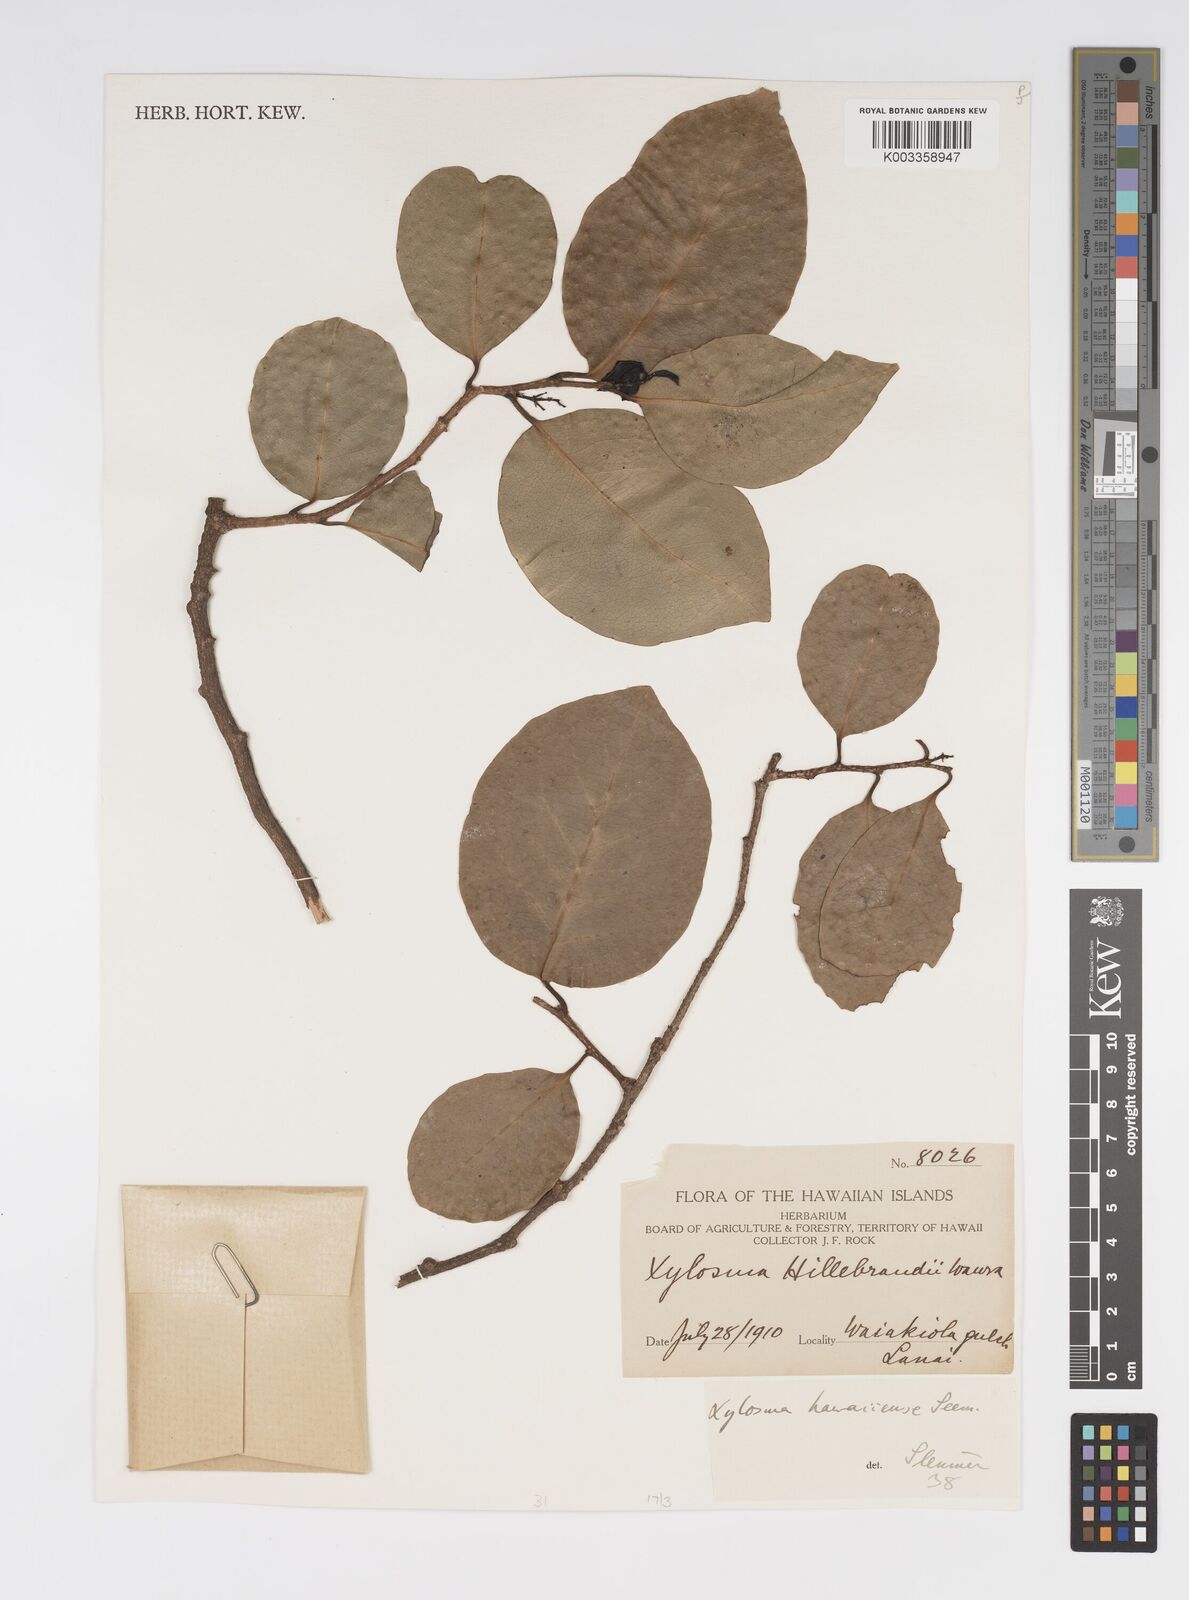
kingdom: Plantae
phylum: Tracheophyta
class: Magnoliopsida
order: Malpighiales
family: Salicaceae
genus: Xylosma
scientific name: Xylosma hawaiense
